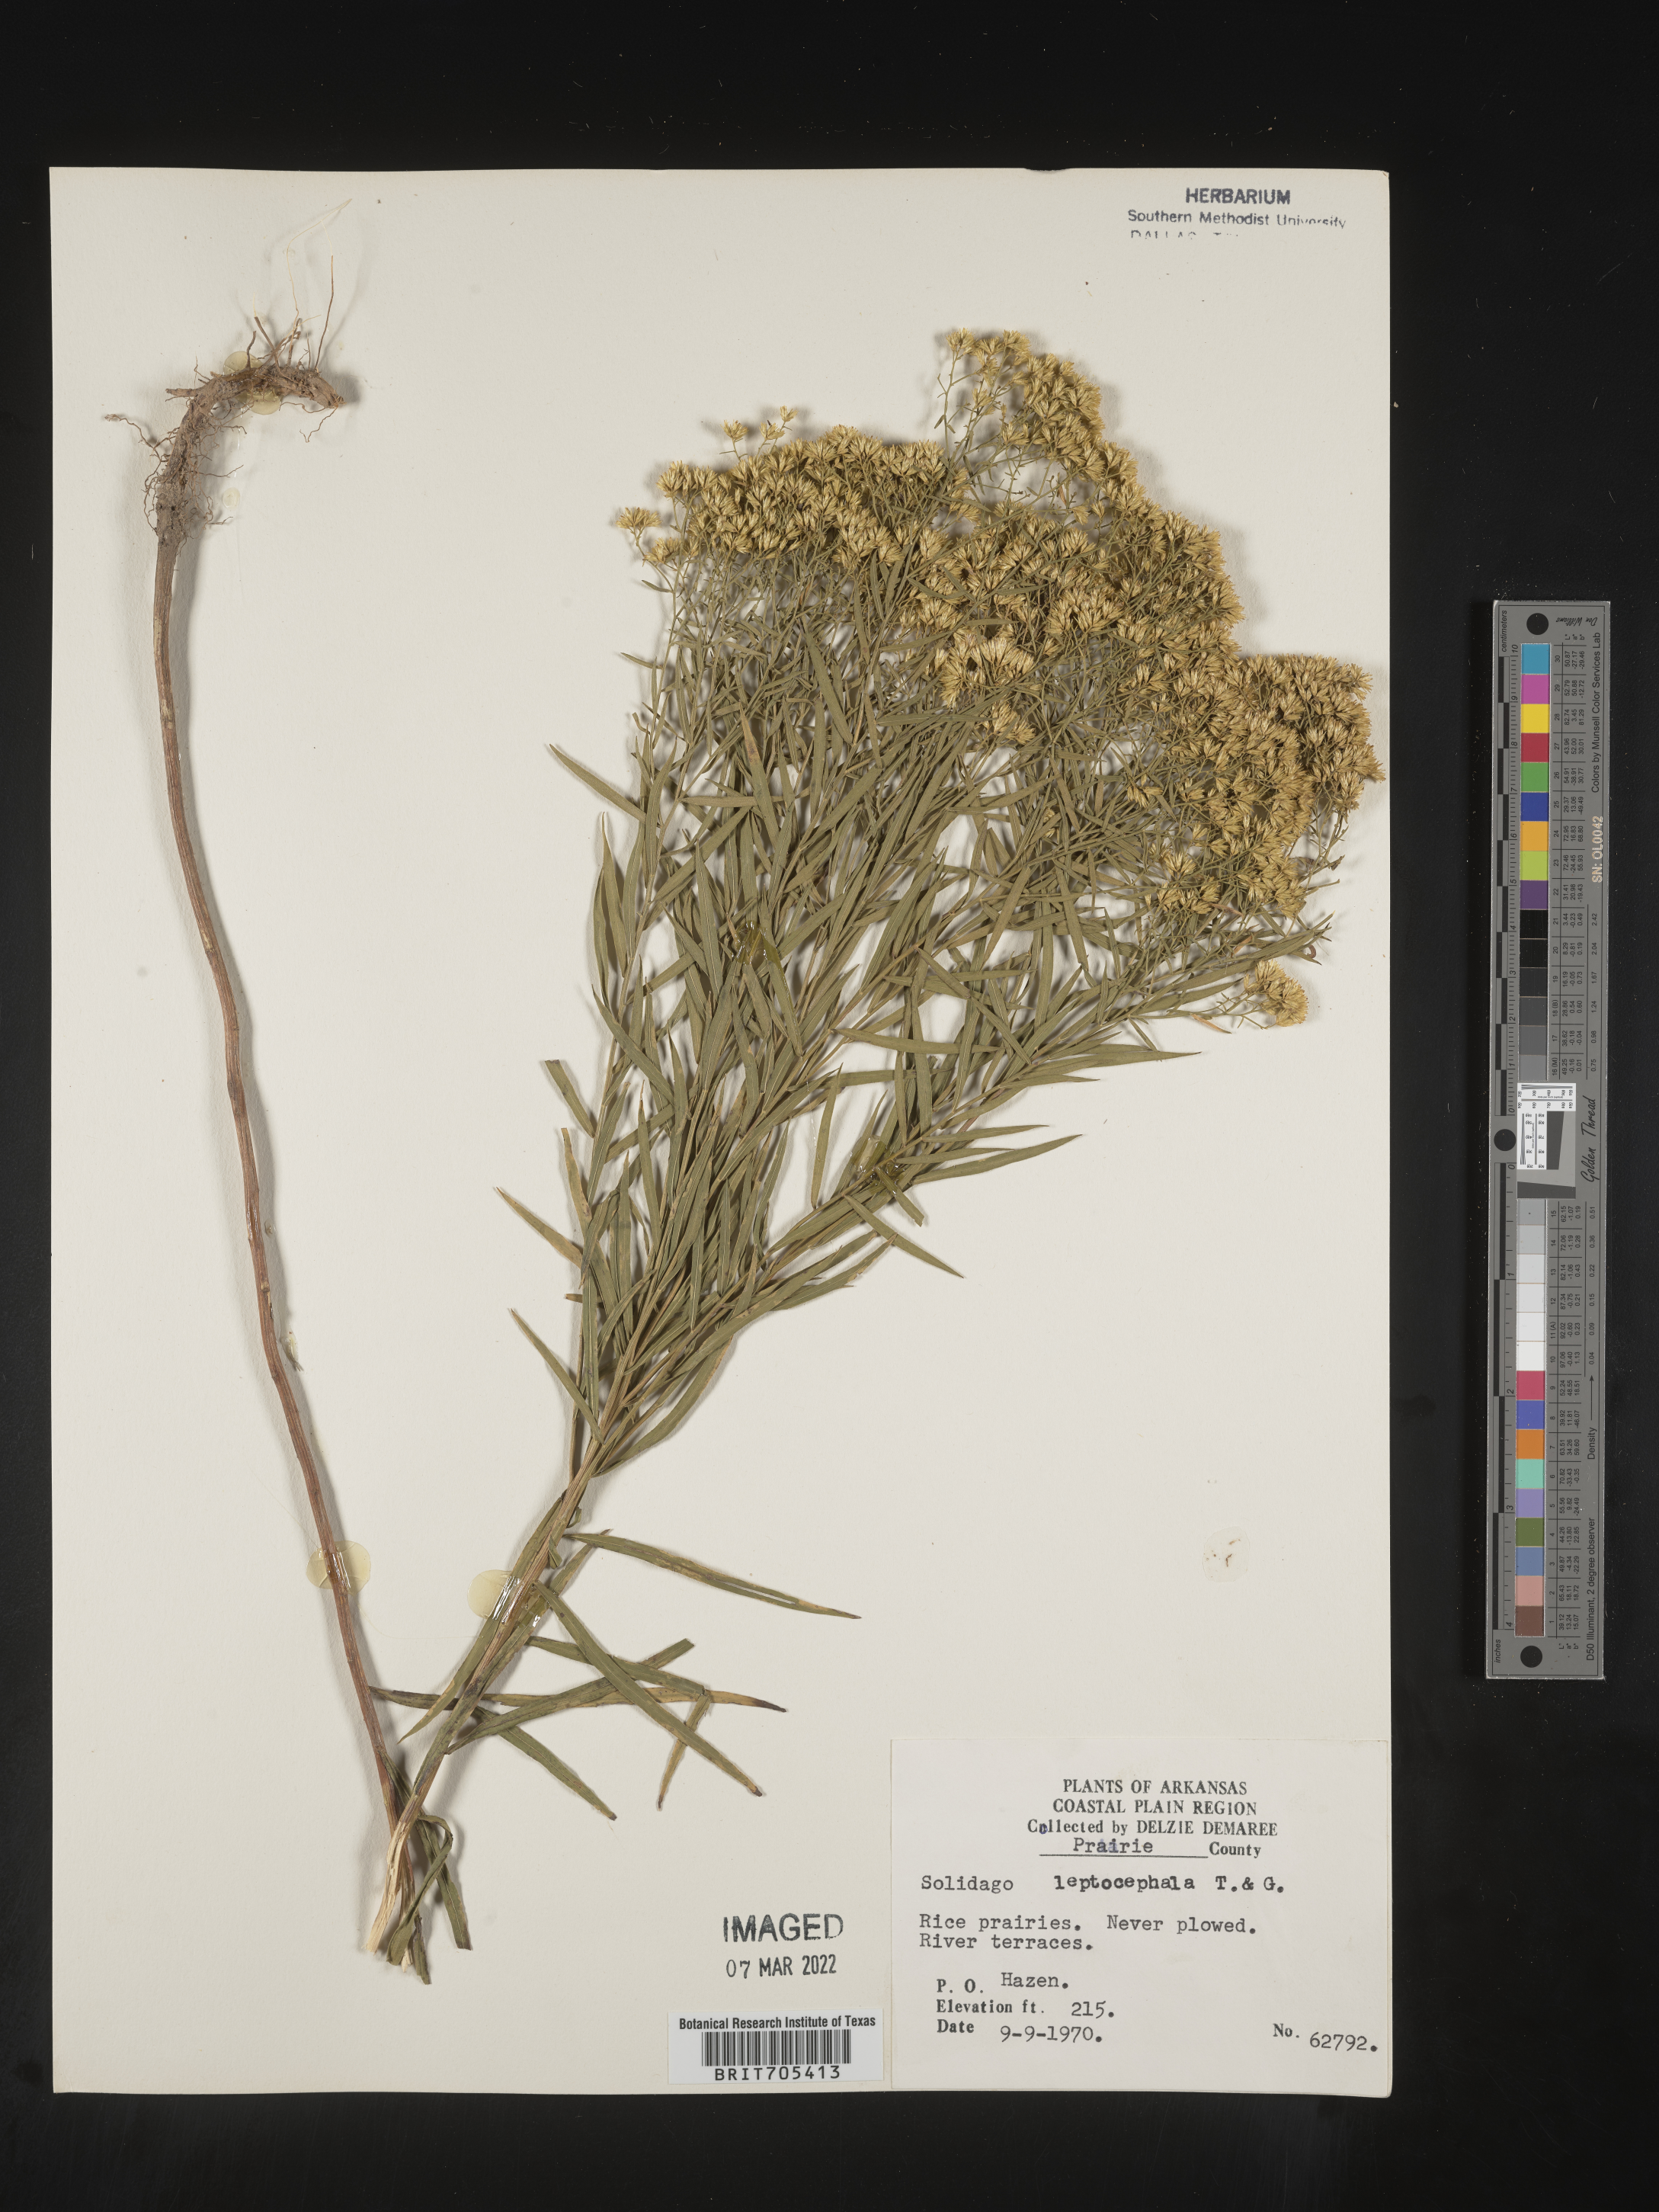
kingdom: Plantae
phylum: Tracheophyta
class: Magnoliopsida
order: Asterales
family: Asteraceae
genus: Euthamia
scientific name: Euthamia leptocephala
